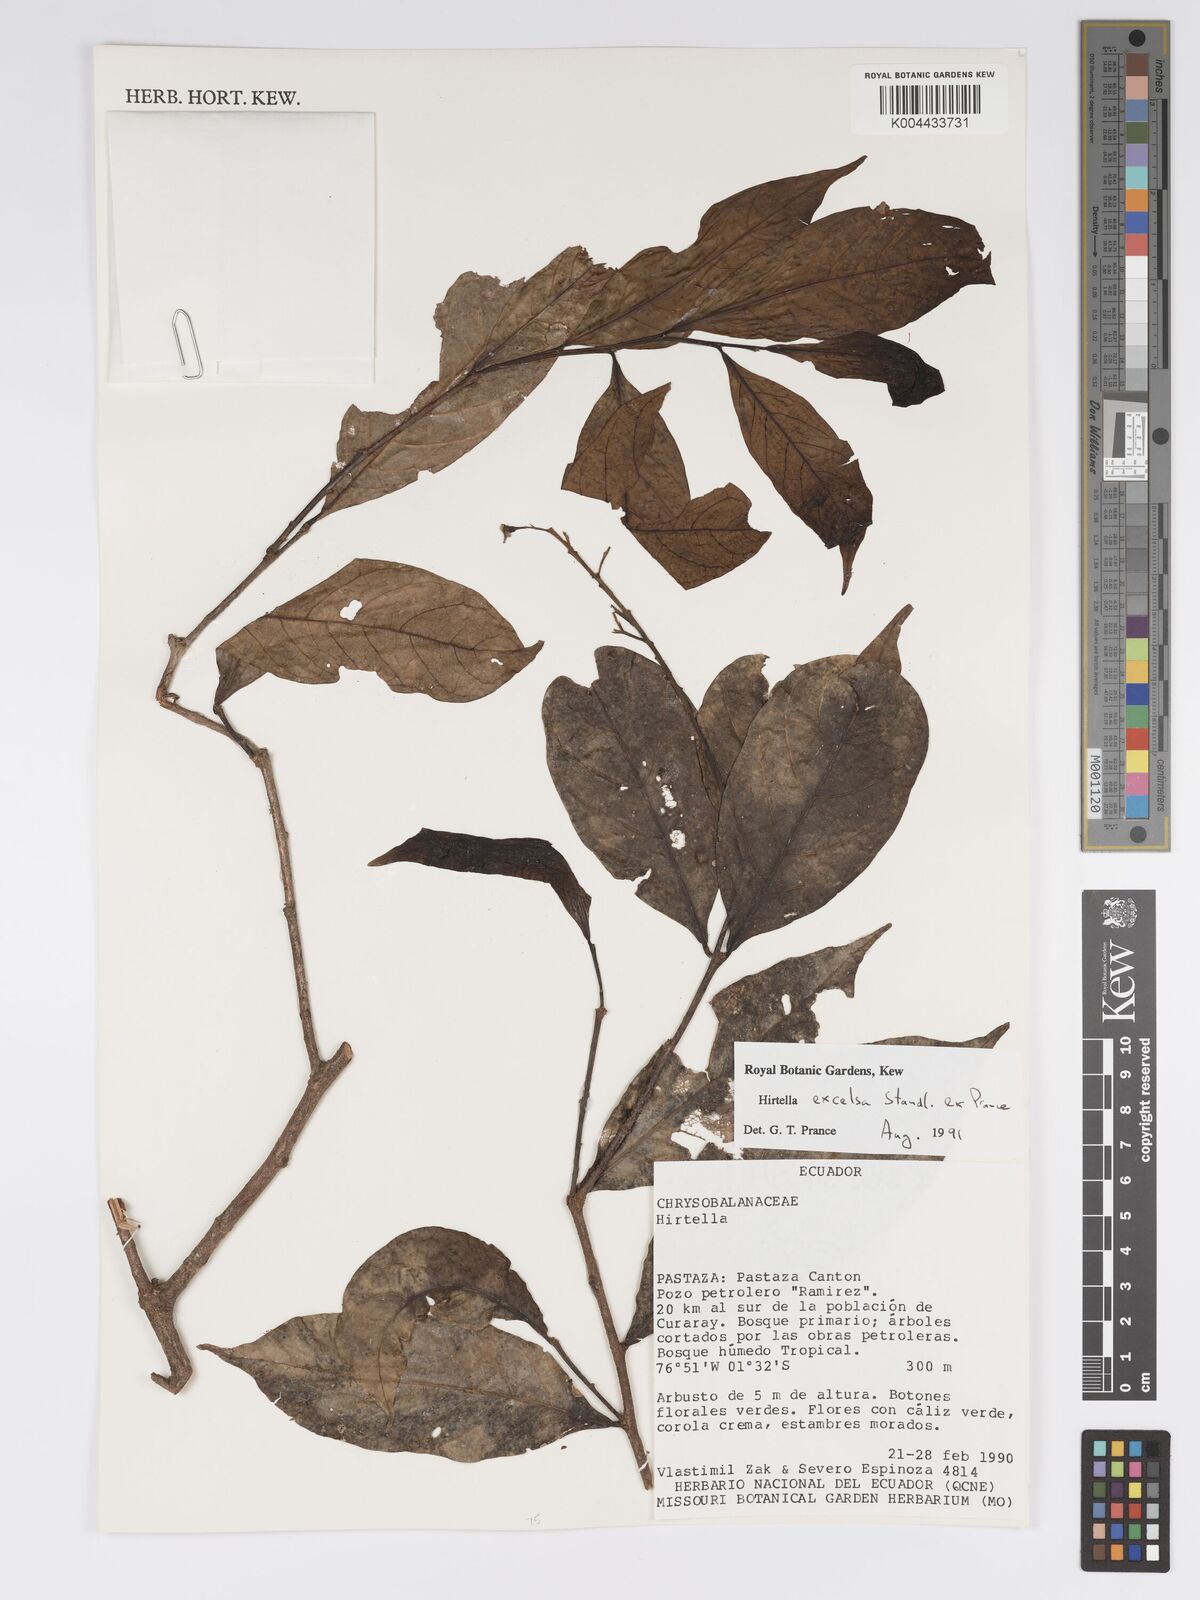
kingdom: Plantae
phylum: Tracheophyta
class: Magnoliopsida
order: Malpighiales
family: Chrysobalanaceae
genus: Hirtella
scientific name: Hirtella excelsa
